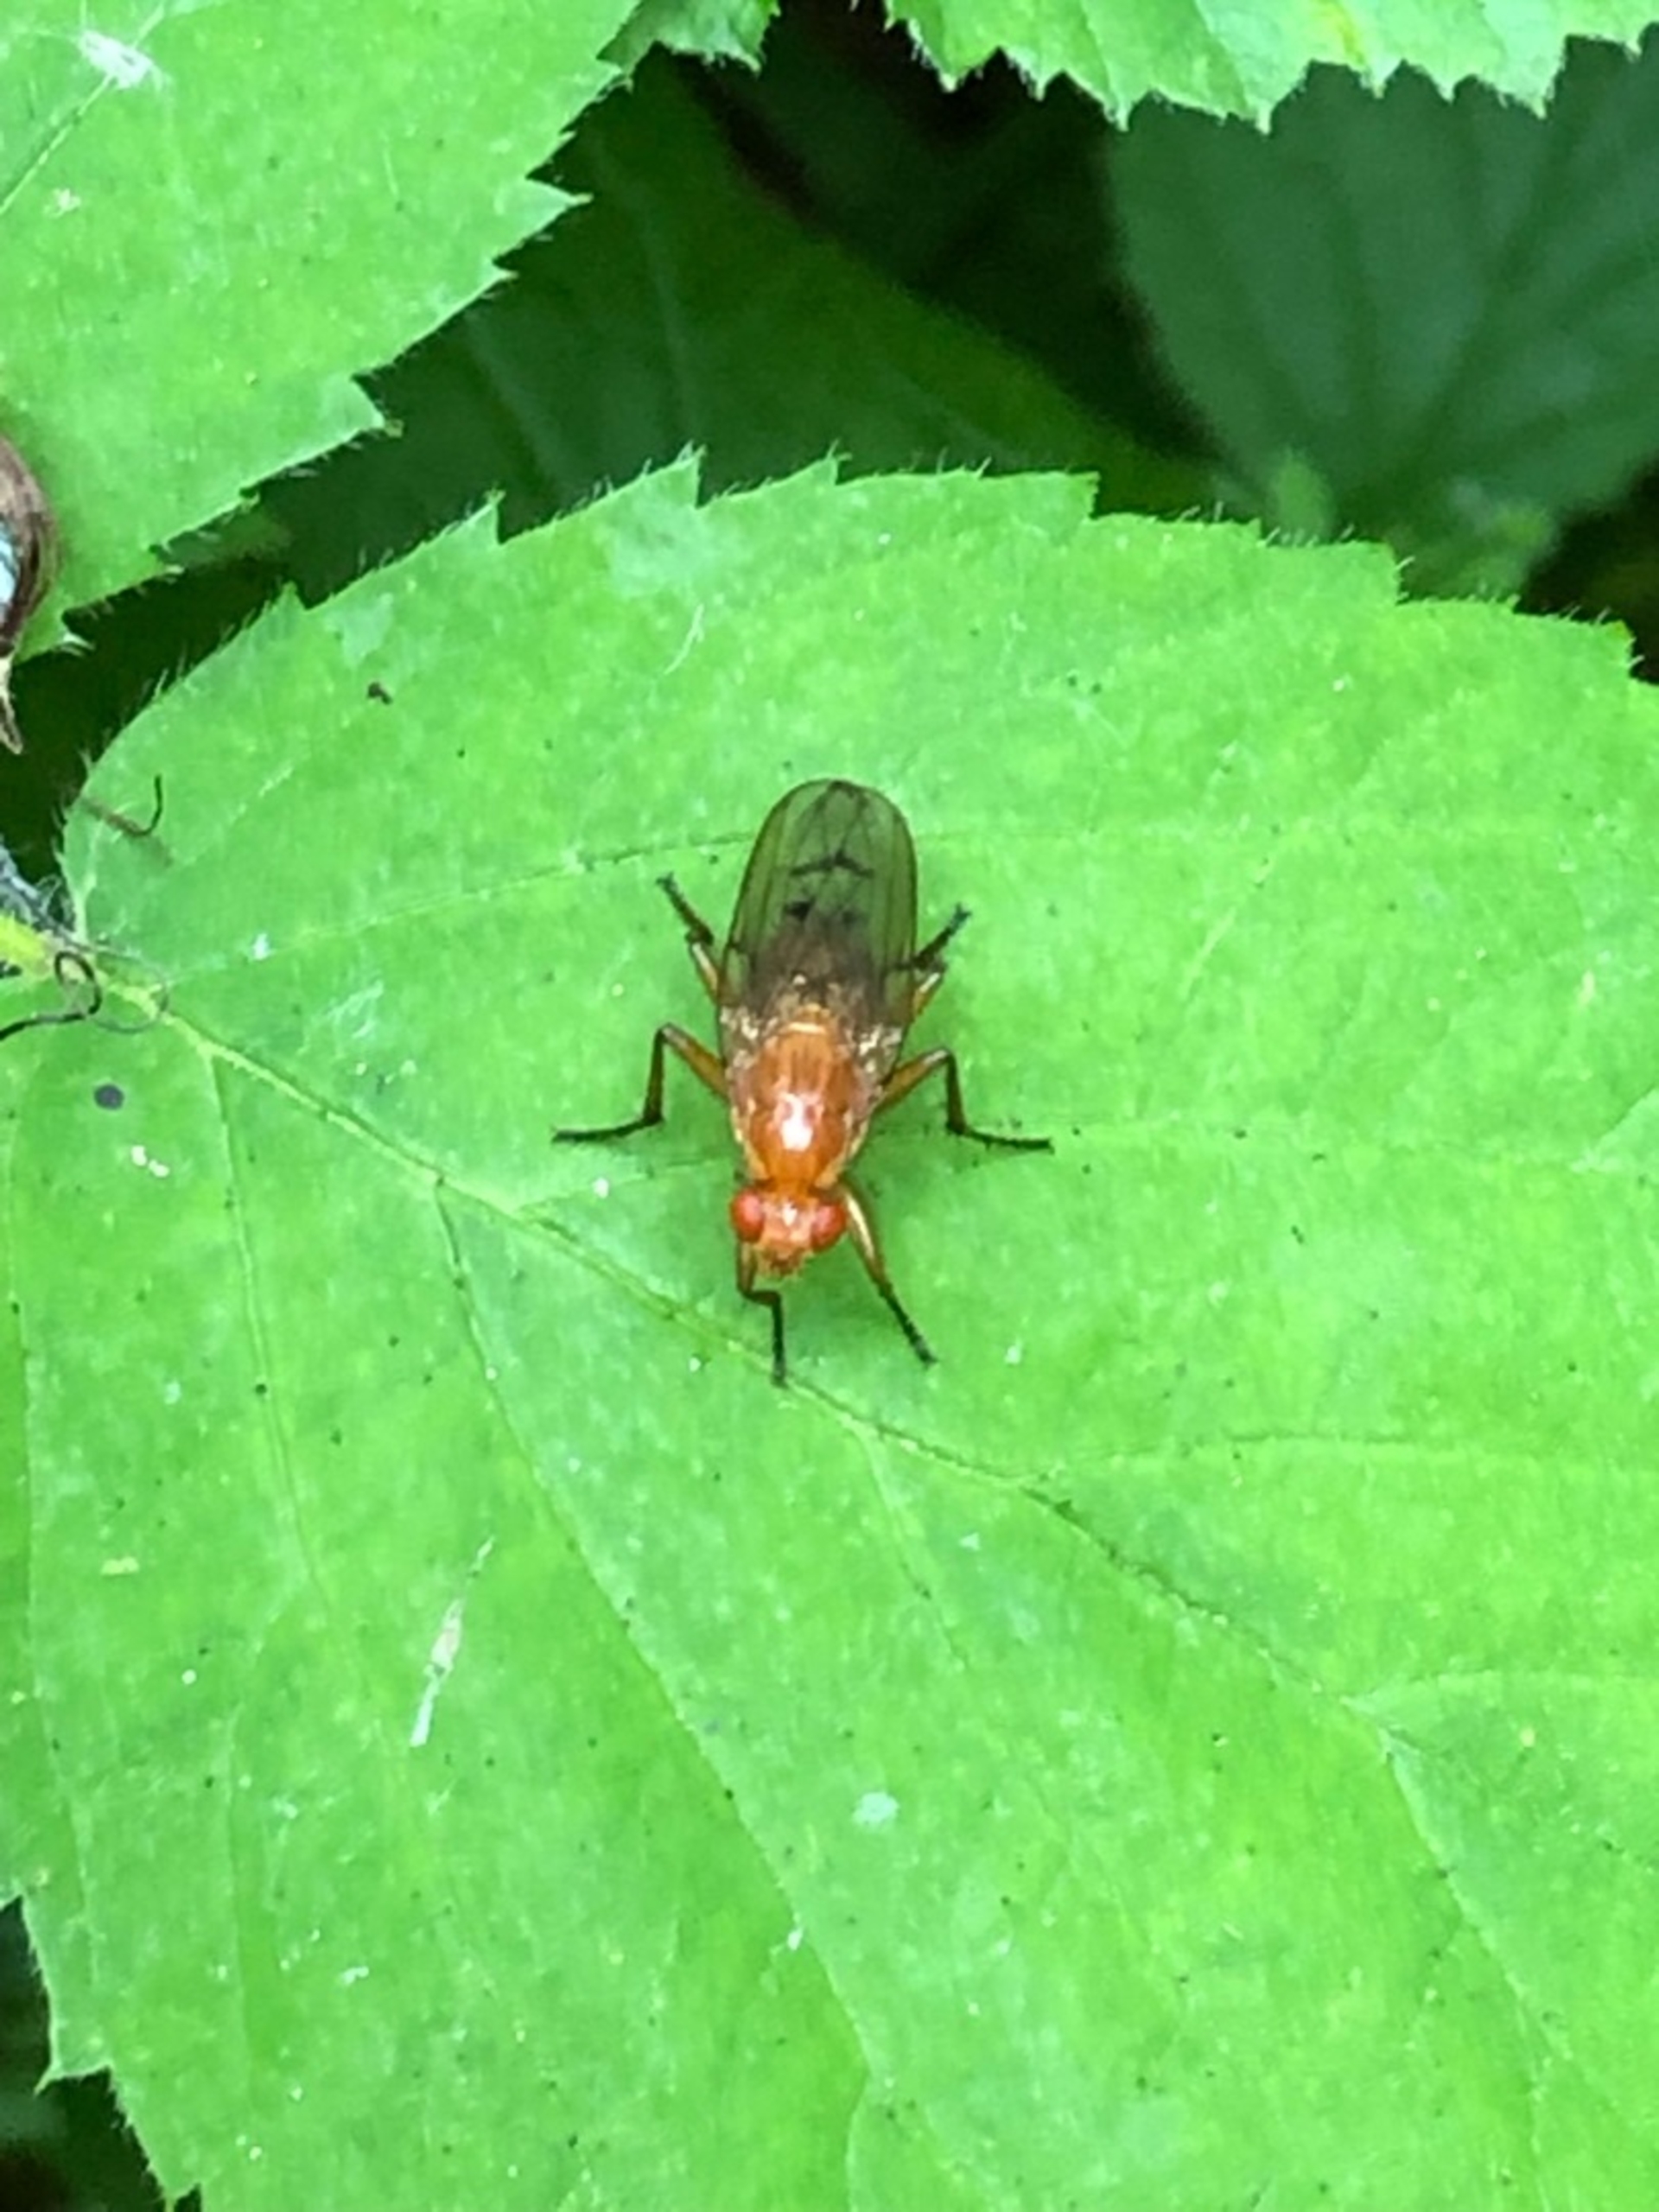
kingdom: Animalia
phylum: Arthropoda
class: Insecta
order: Diptera
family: Dryomyzidae
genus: Dryomyza
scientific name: Dryomyza anilis
